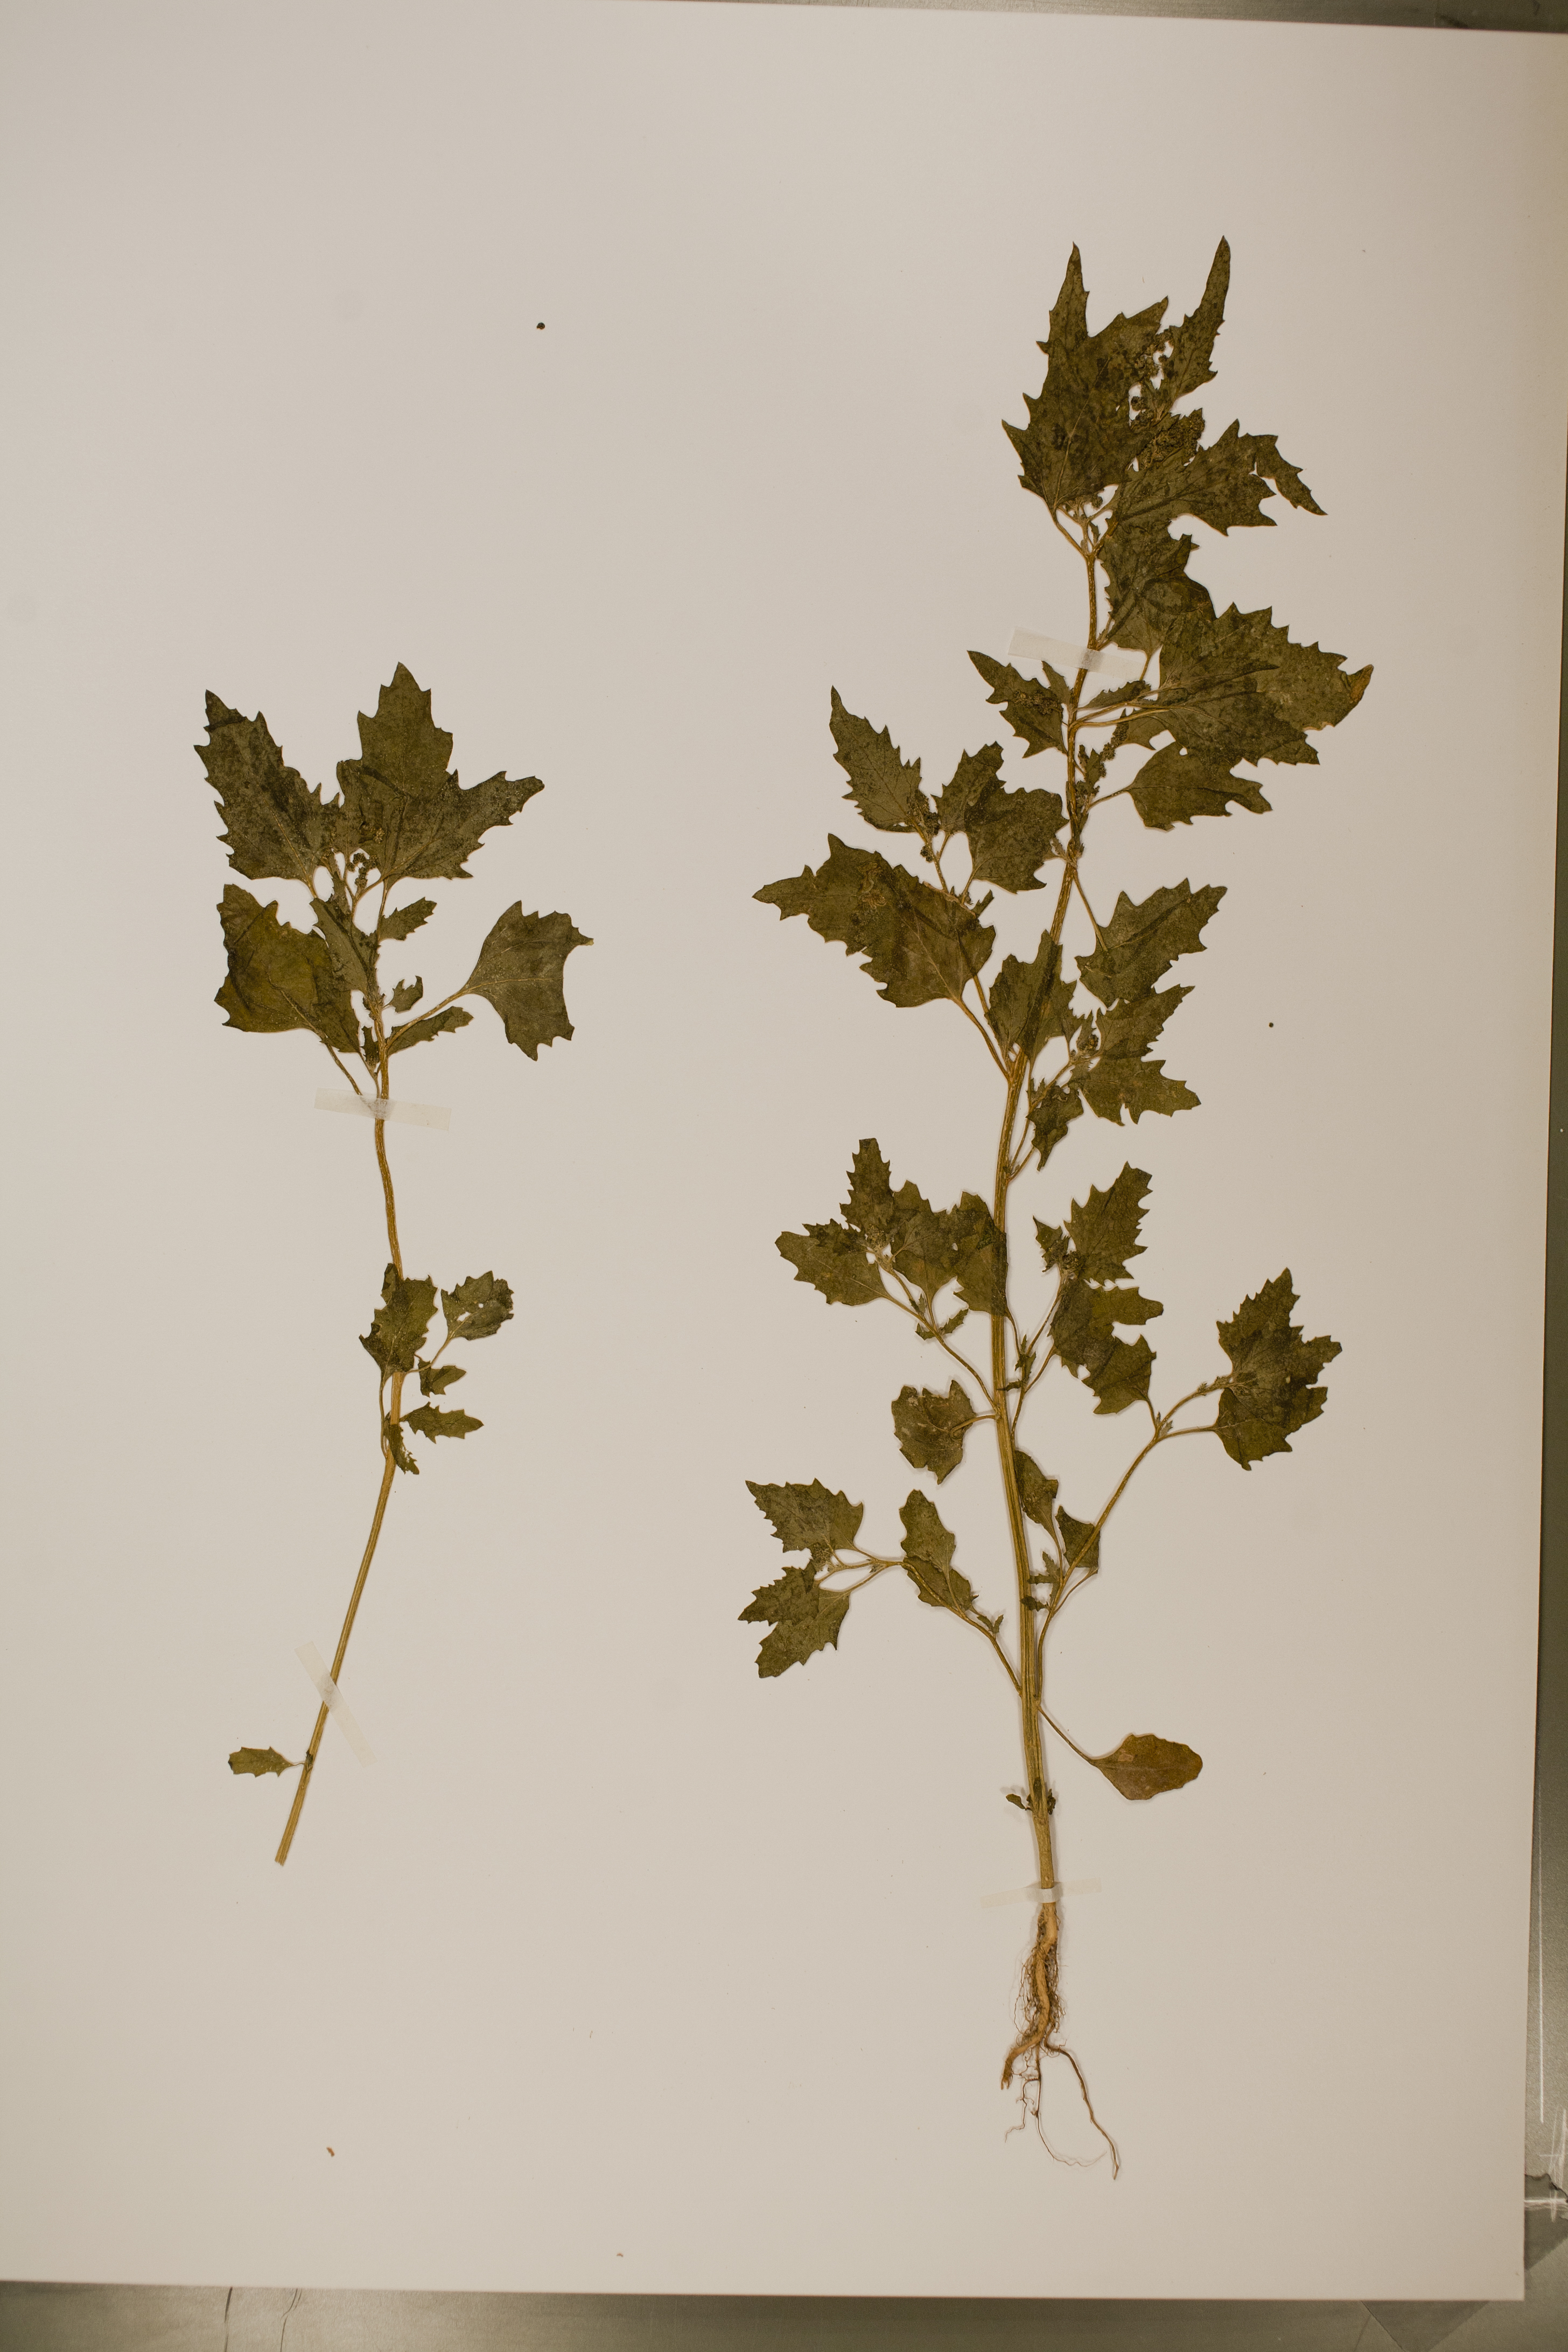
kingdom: Plantae
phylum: Tracheophyta
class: Magnoliopsida
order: Caryophyllales
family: Amaranthaceae
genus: Chenopodiastrum
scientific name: Chenopodiastrum murale
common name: Sowbane
